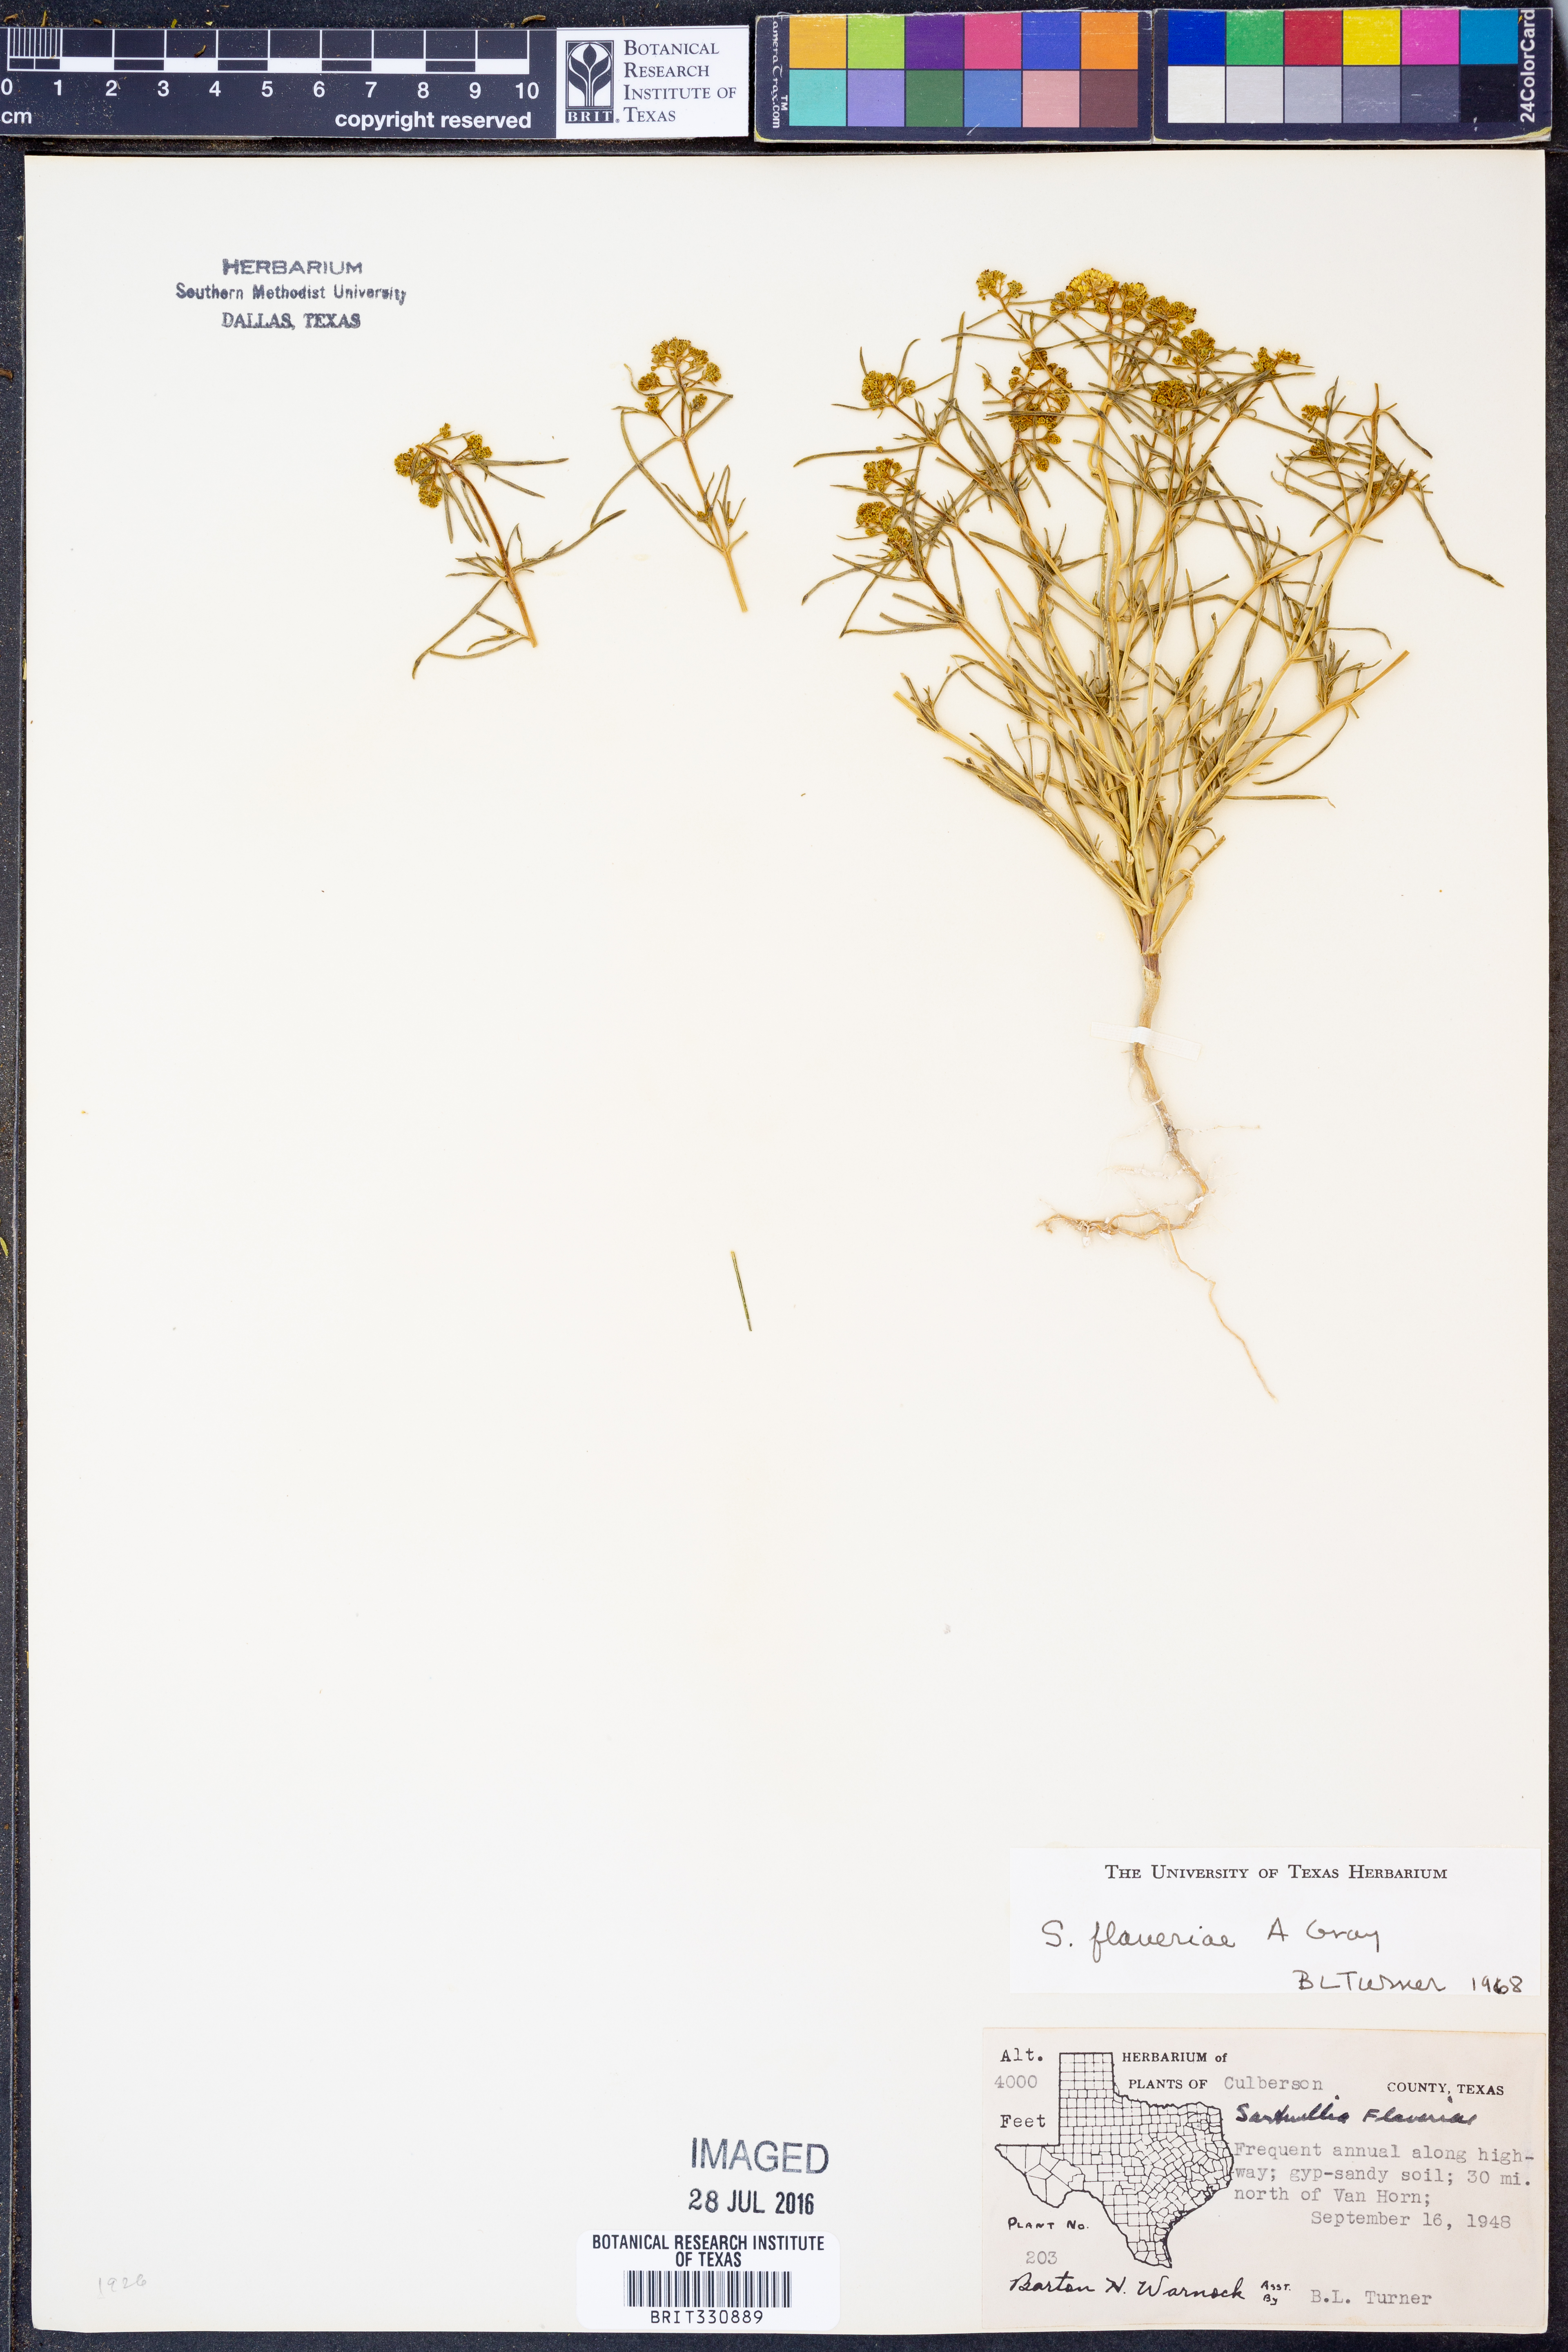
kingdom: Plantae
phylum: Tracheophyta
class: Magnoliopsida
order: Asterales
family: Asteraceae
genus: Sartwellia
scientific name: Sartwellia flaveriae
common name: Sartwellia
